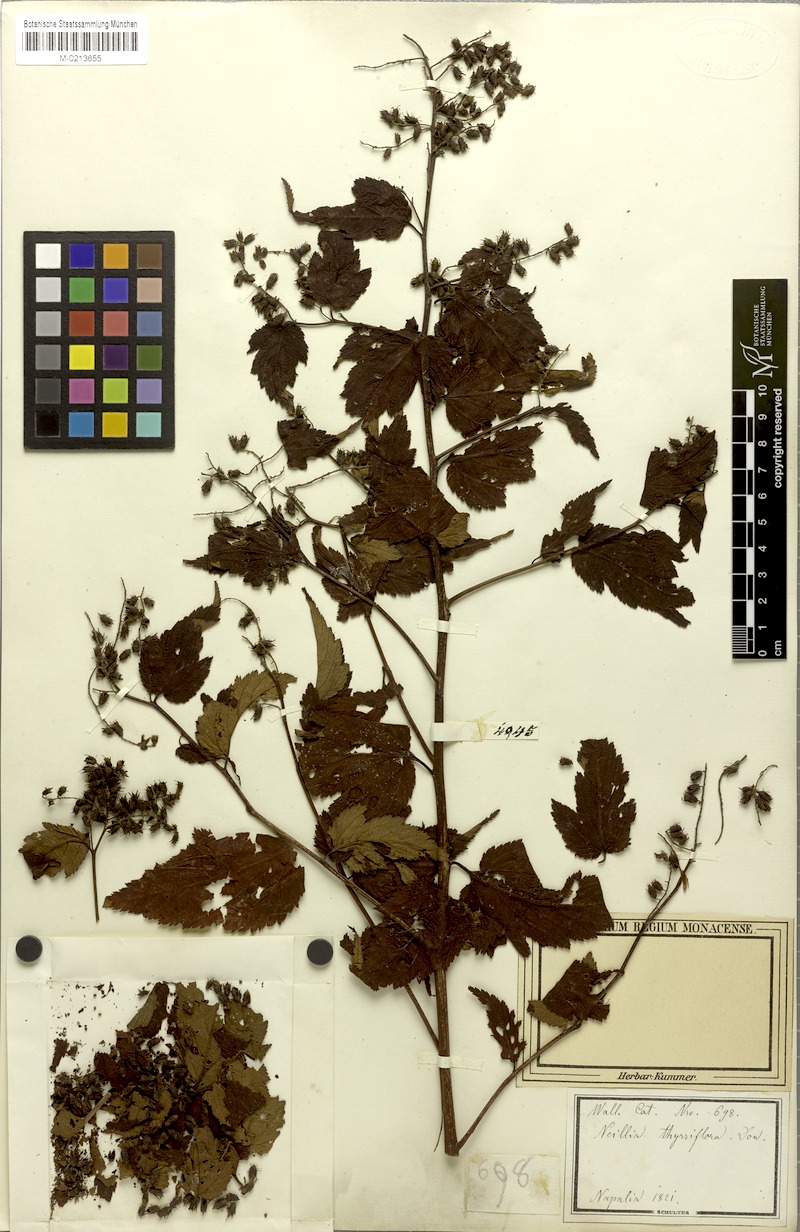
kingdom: Plantae
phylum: Tracheophyta
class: Magnoliopsida
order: Rosales
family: Rosaceae
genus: Neillia
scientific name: Neillia thyrsiflora
